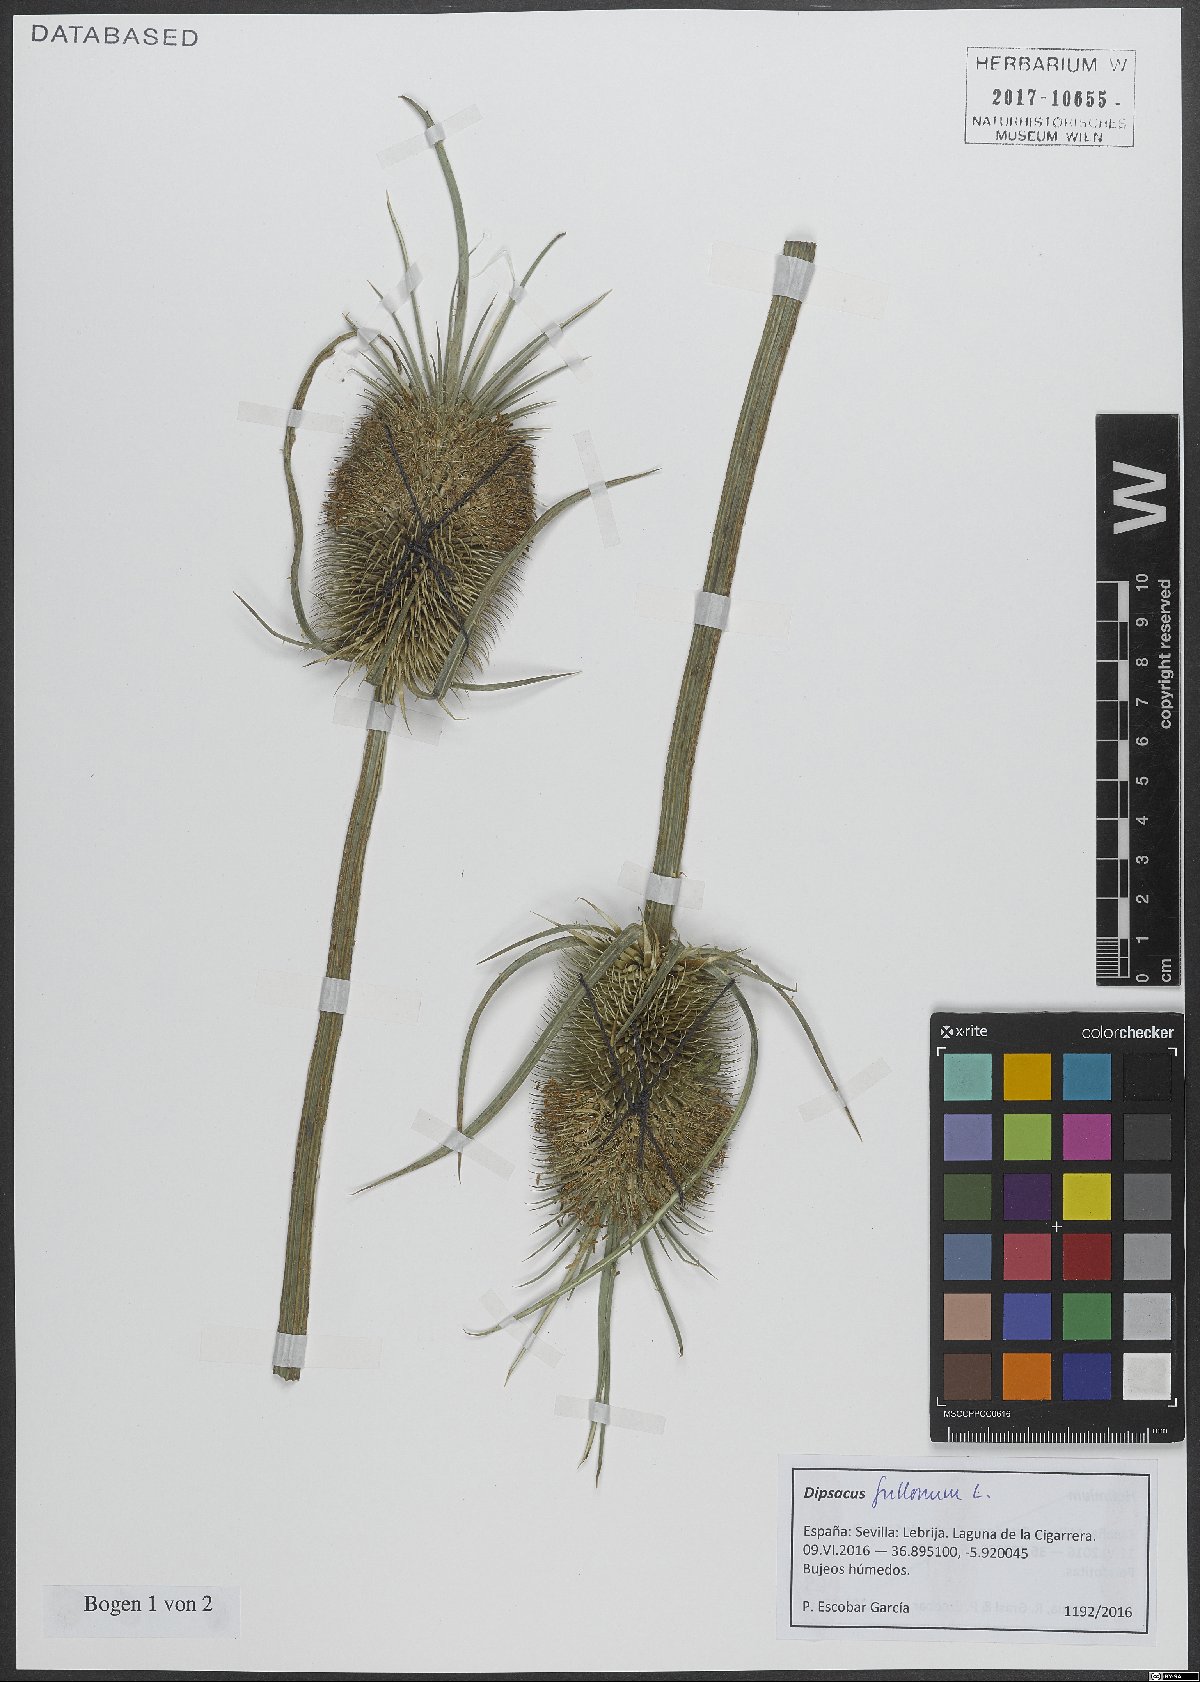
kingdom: Plantae
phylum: Tracheophyta
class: Magnoliopsida
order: Dipsacales
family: Caprifoliaceae
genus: Dipsacus
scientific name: Dipsacus fullonum
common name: Teasel
